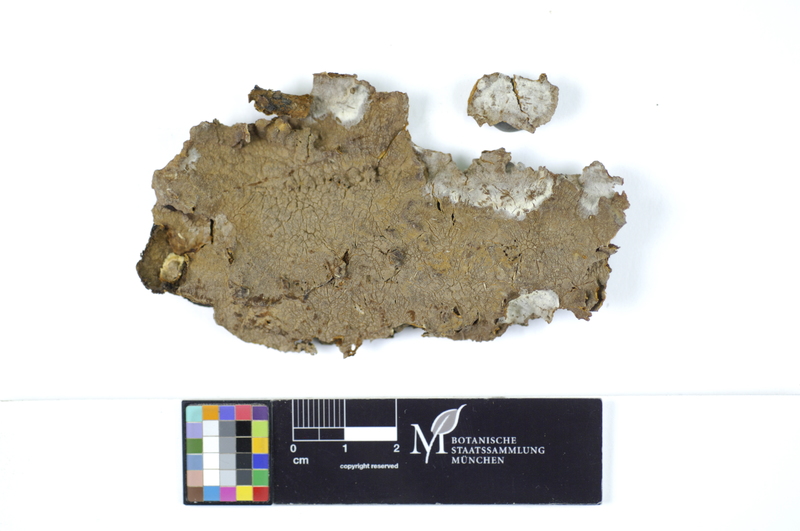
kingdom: Fungi
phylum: Basidiomycota
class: Agaricomycetes
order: Hymenochaetales
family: Hymenochaetaceae
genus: Hydnoporia
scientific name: Hydnoporia tabacina
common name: Willow glue
